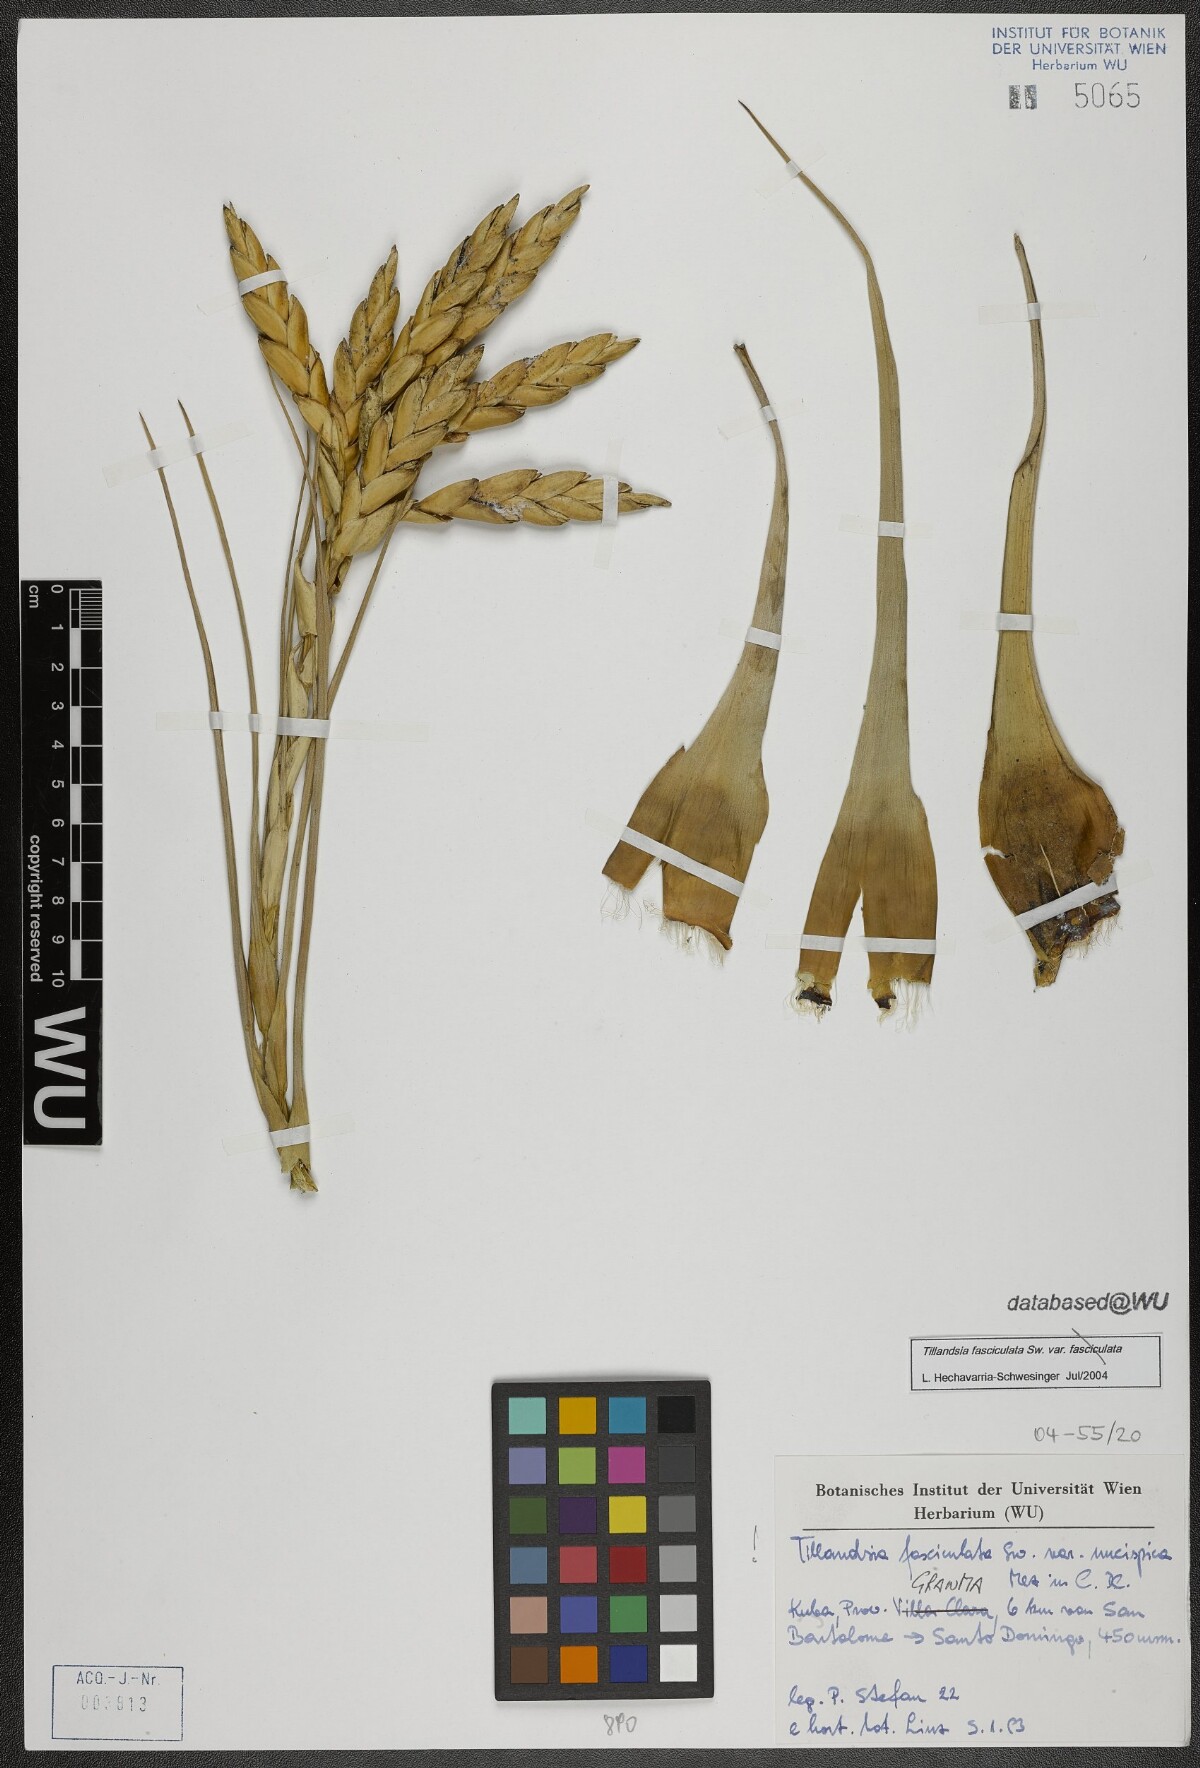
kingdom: Plantae
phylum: Tracheophyta
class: Liliopsida
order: Poales
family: Bromeliaceae
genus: Tillandsia
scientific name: Tillandsia fasciculata
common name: Giant airplant
